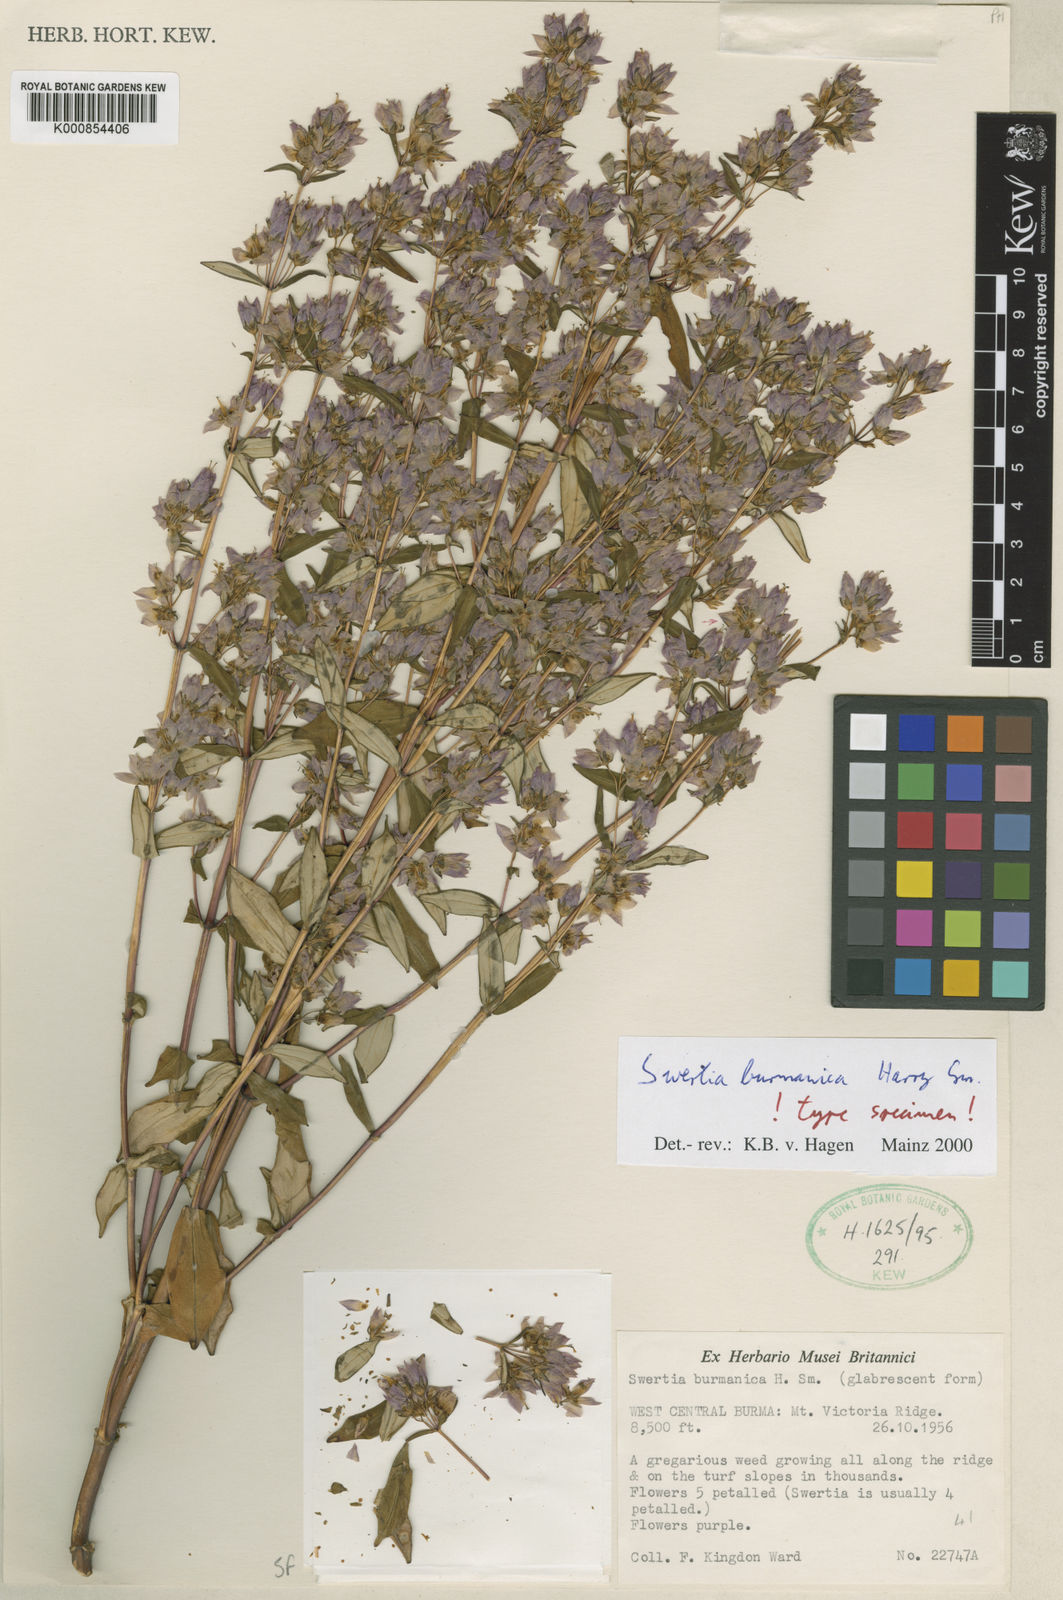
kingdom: Plantae
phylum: Tracheophyta
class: Magnoliopsida
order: Gentianales
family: Gentianaceae
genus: Swertia
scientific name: Swertia burmanica
